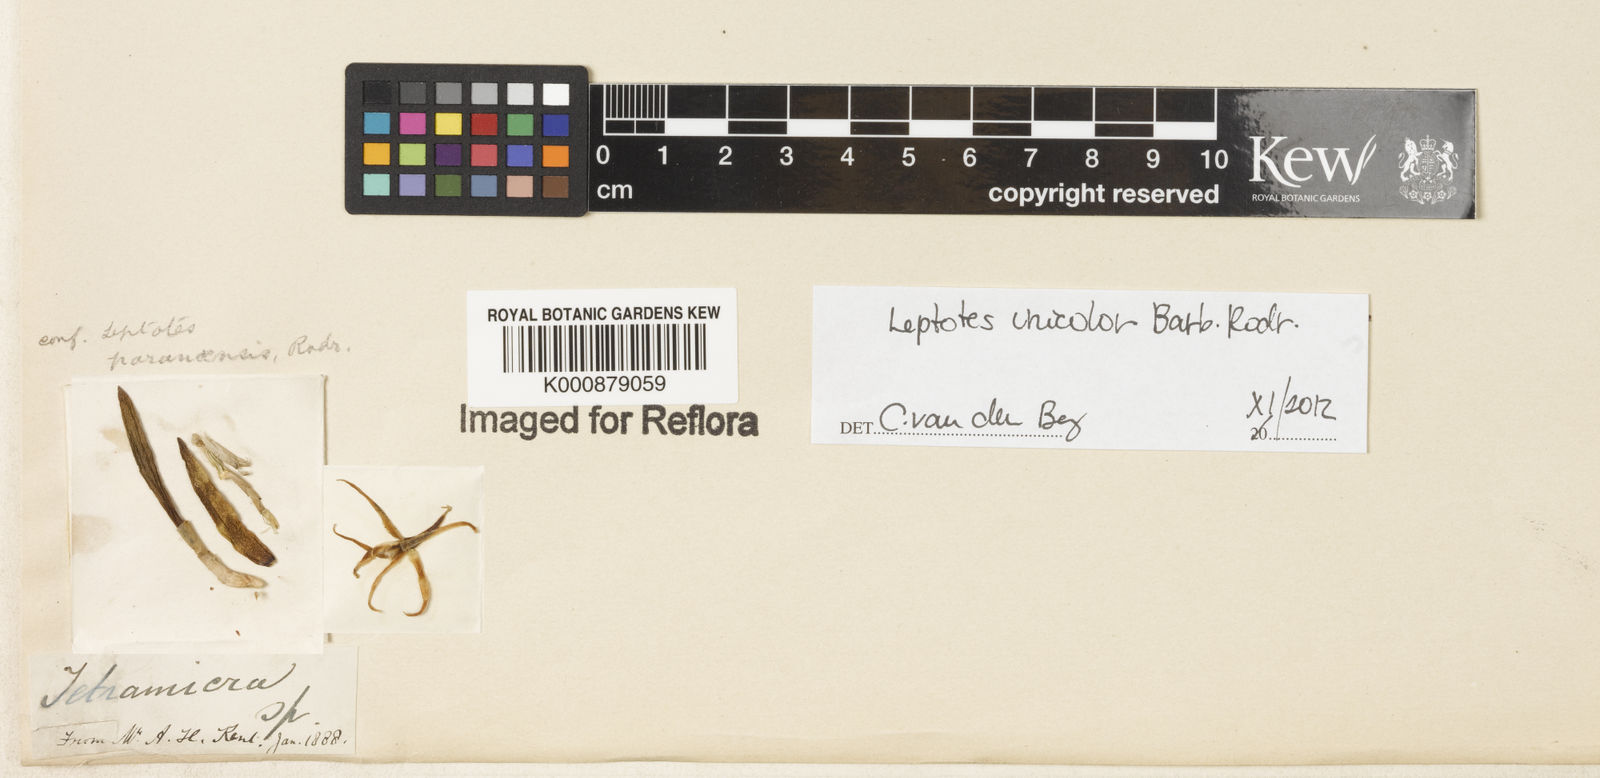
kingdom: Plantae
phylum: Tracheophyta
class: Liliopsida
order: Asparagales
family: Orchidaceae
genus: Leptotes
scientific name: Leptotes unicolor
